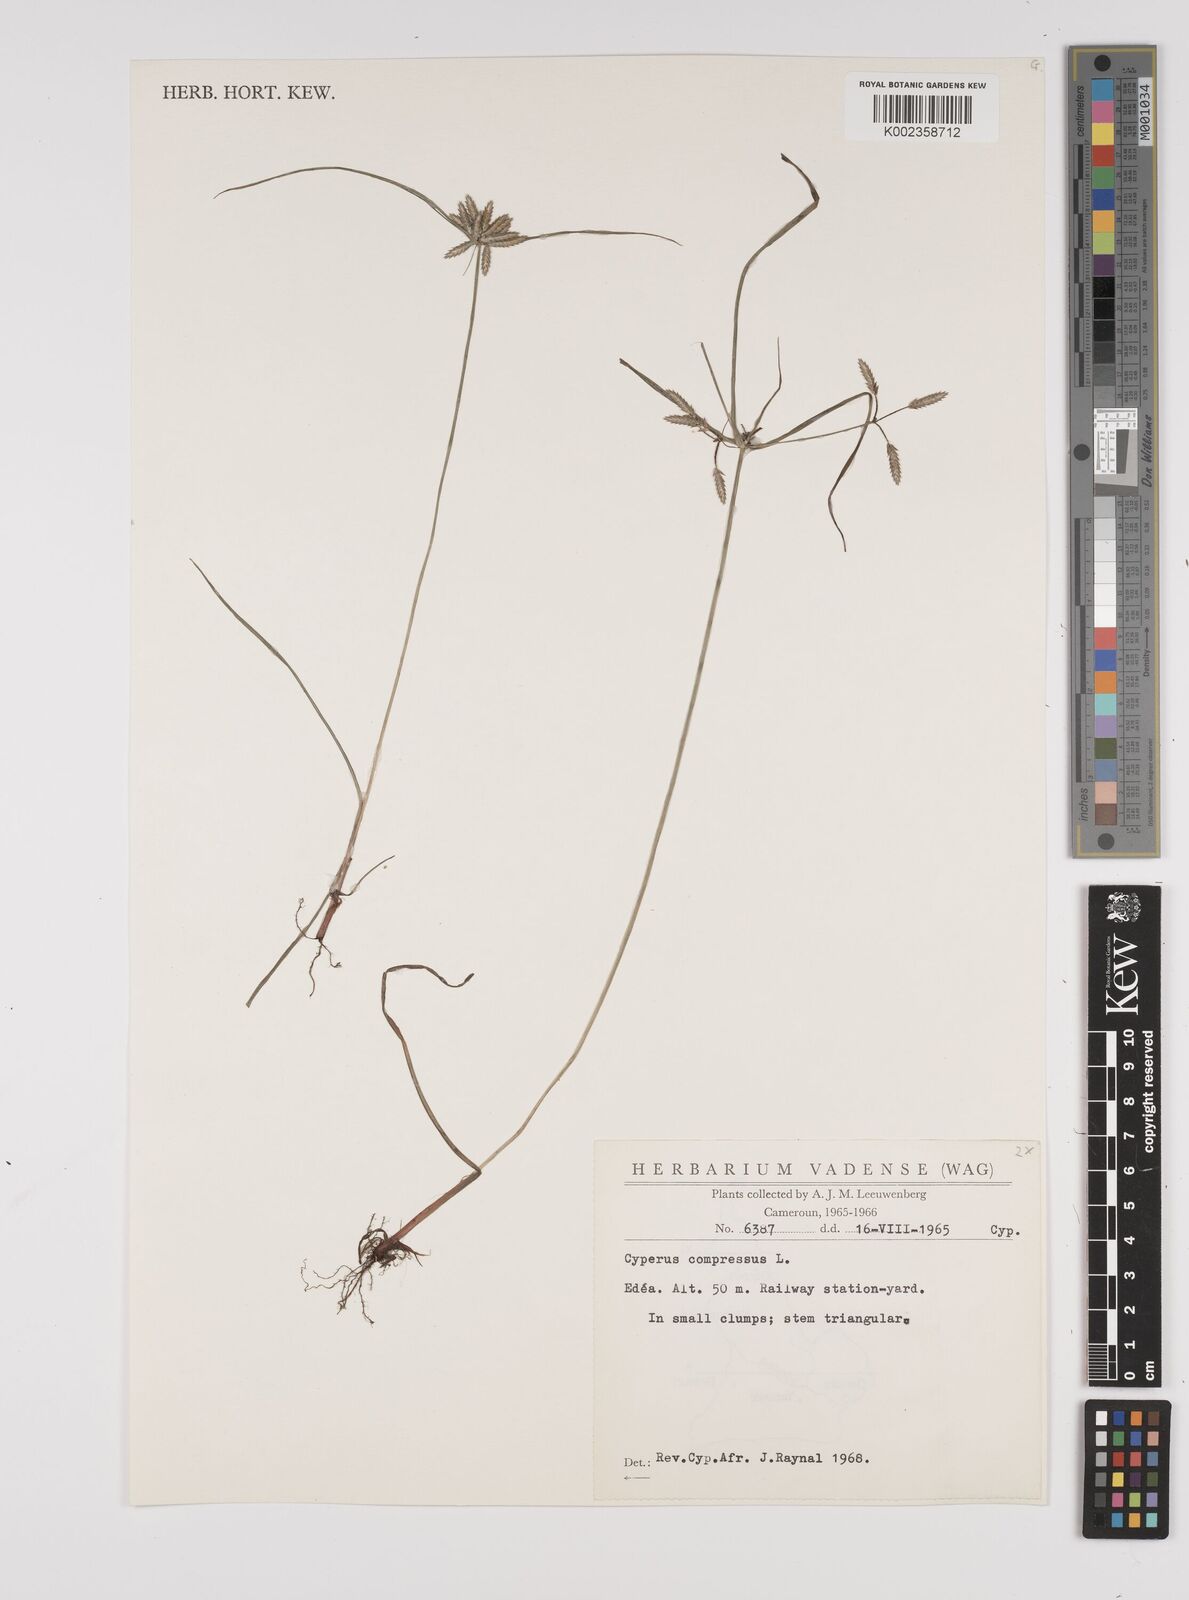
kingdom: Plantae
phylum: Tracheophyta
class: Liliopsida
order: Poales
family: Cyperaceae
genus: Cyperus
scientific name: Cyperus compressus
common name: Poorland flatsedge
